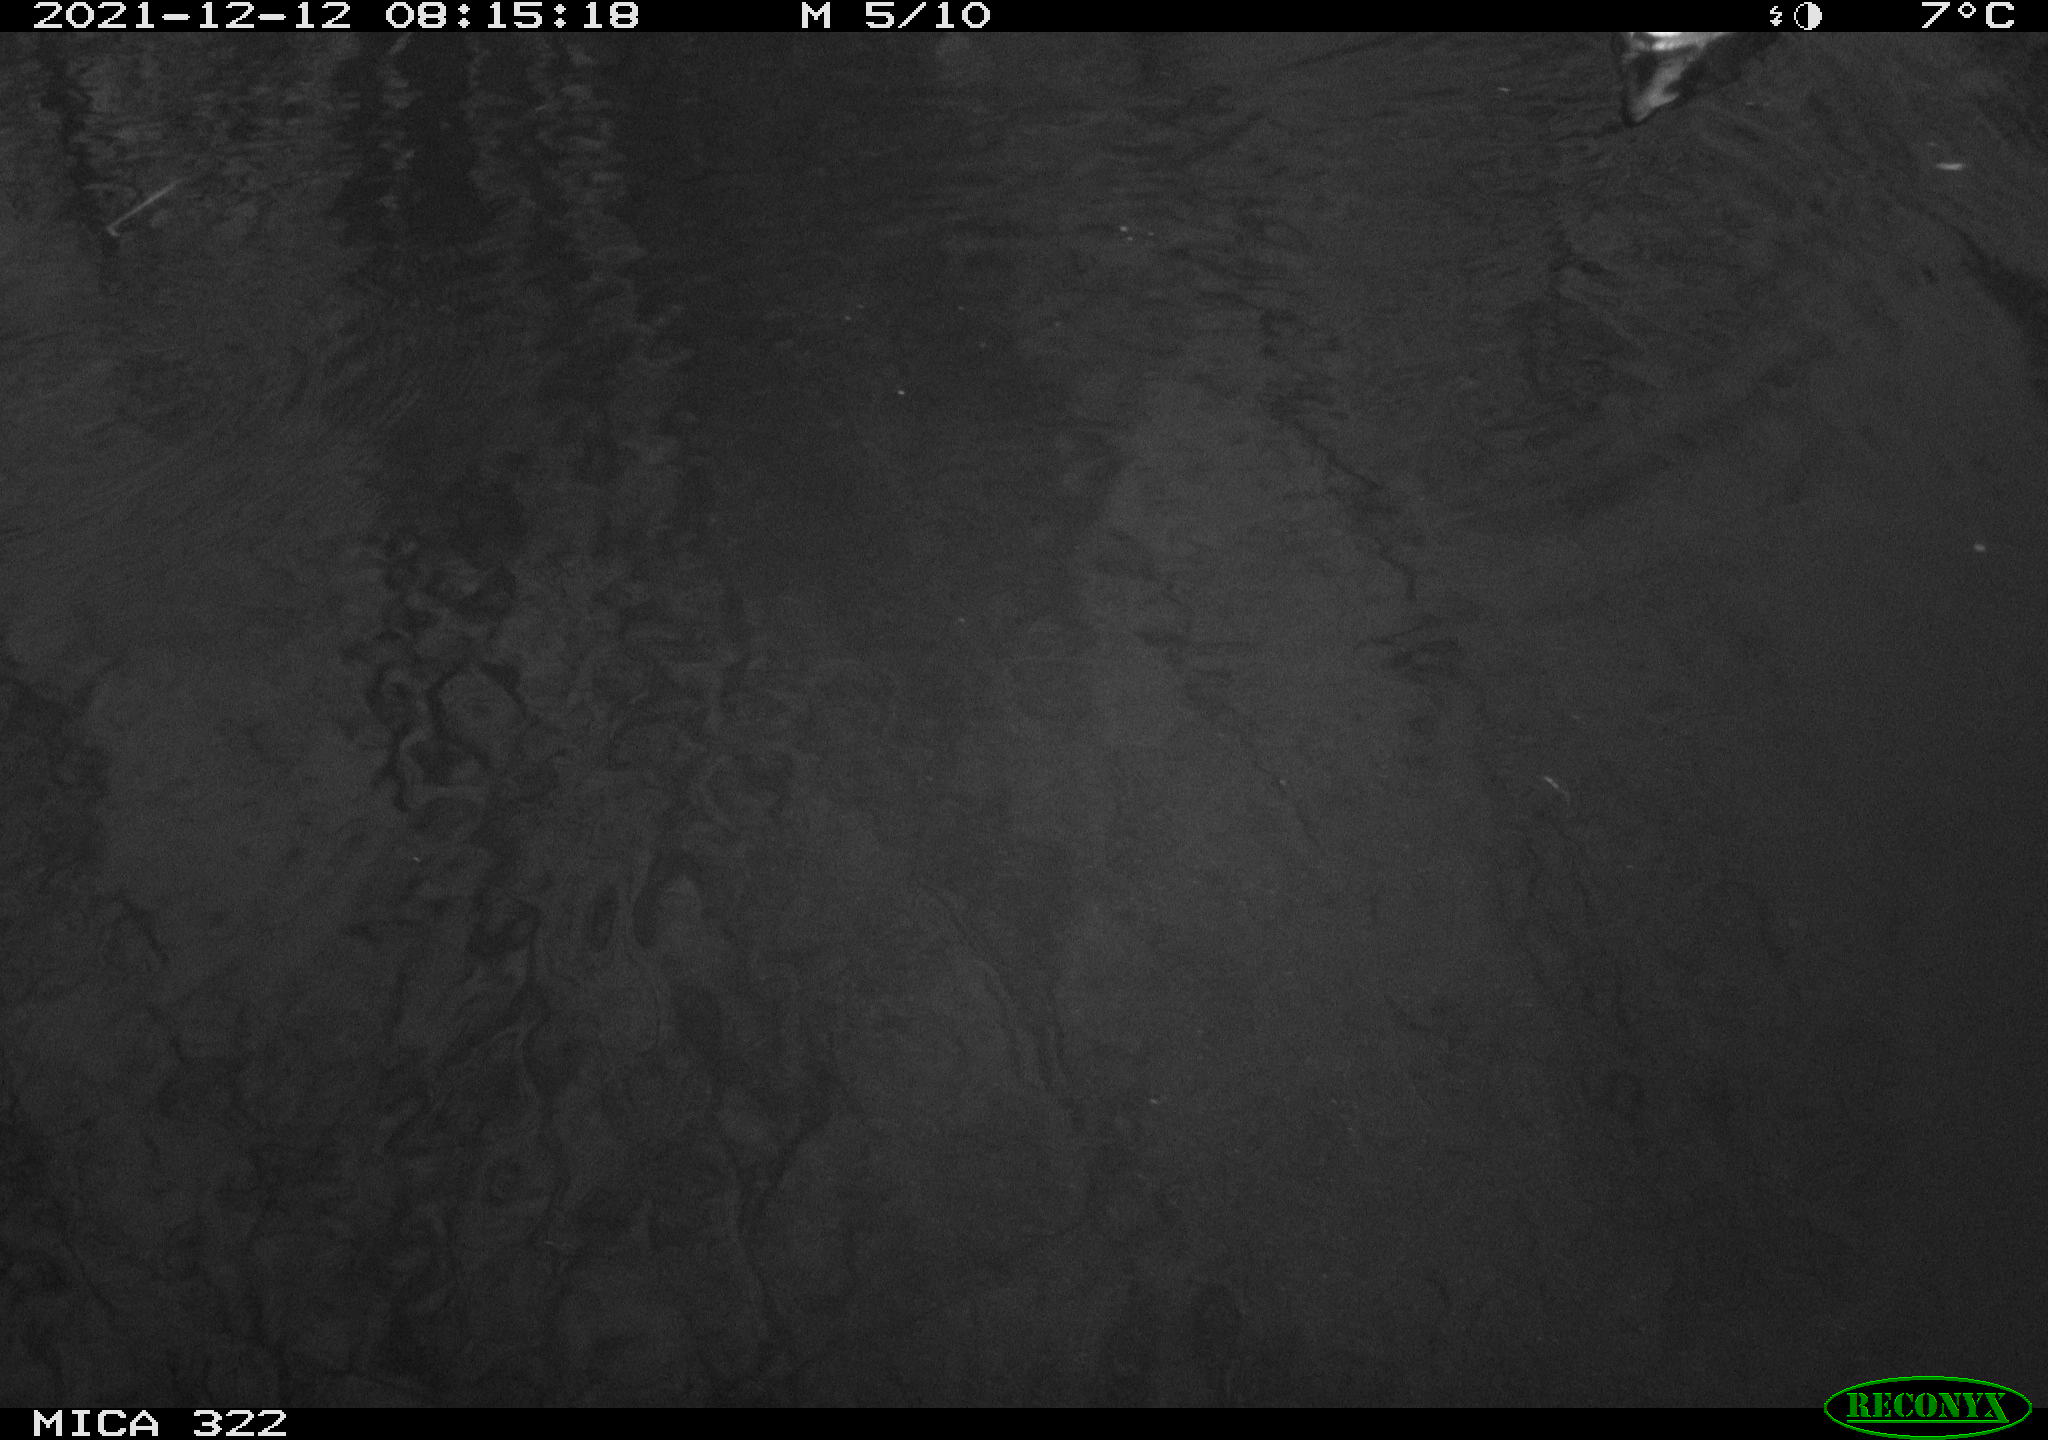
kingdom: Animalia
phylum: Chordata
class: Aves
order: Gruiformes
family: Rallidae
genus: Gallinula
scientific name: Gallinula chloropus
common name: Common moorhen
